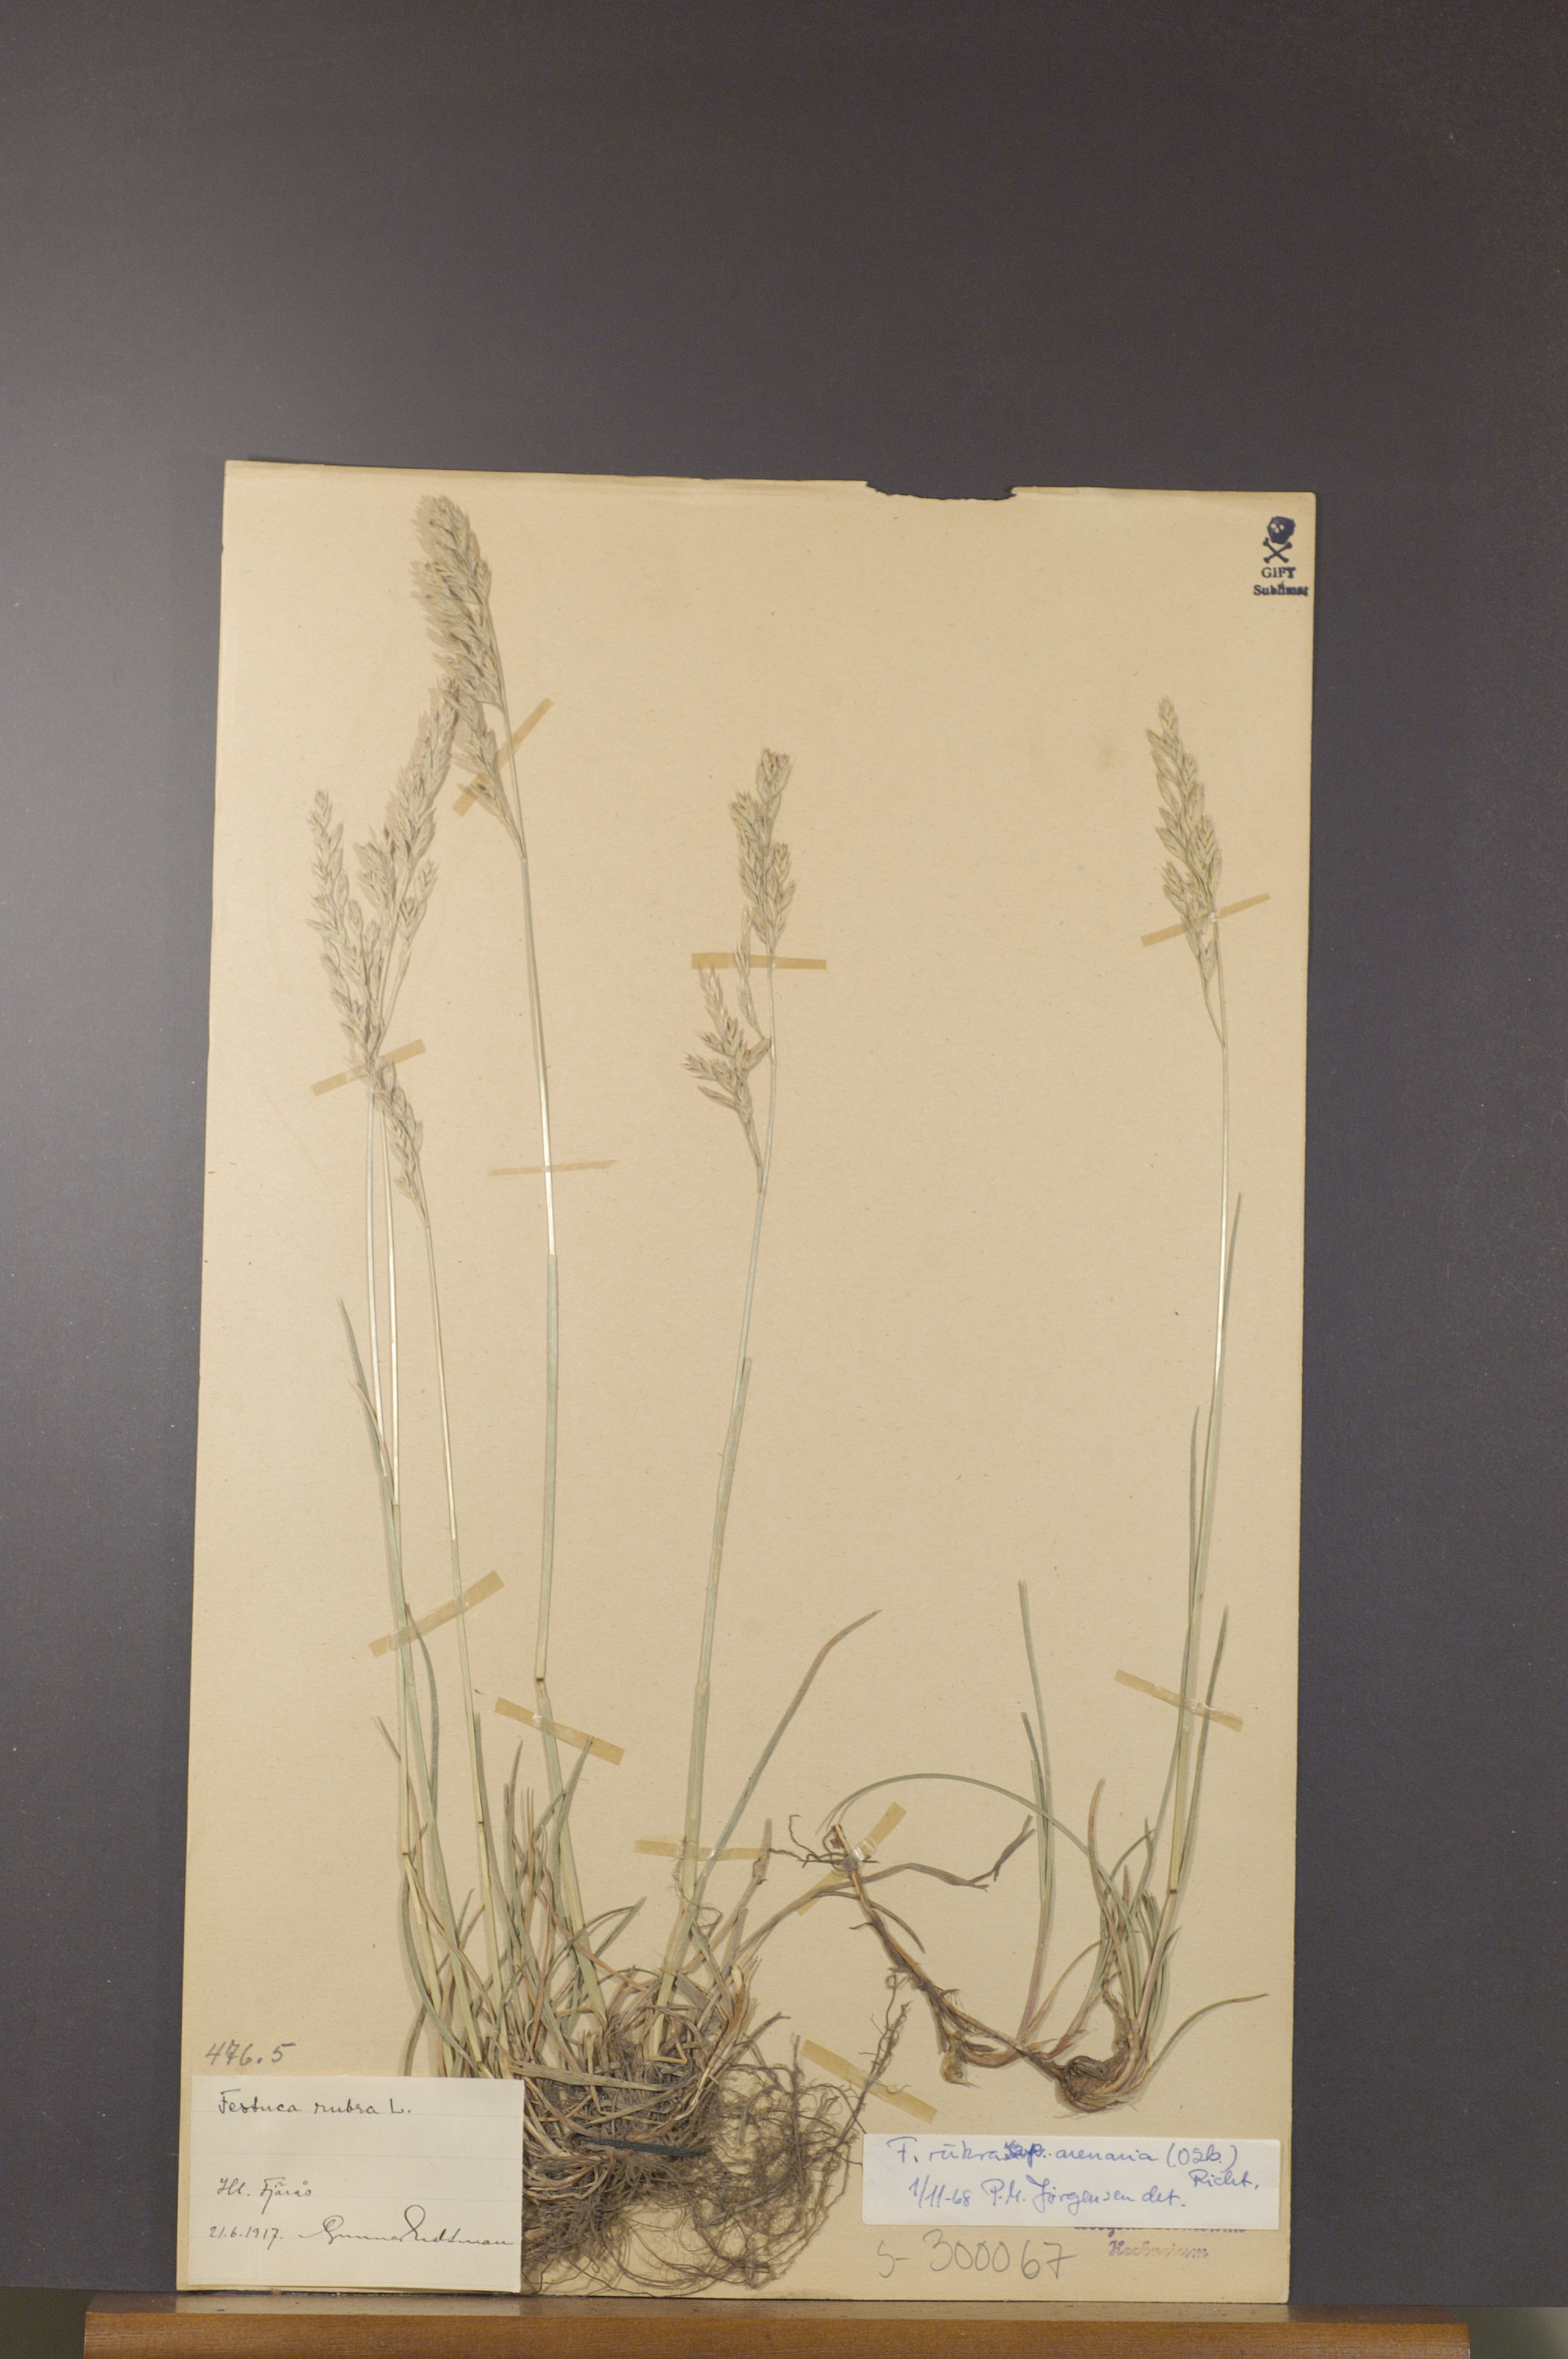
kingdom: Plantae
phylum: Tracheophyta
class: Liliopsida
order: Poales
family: Poaceae
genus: Festuca
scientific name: Festuca rubra
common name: Red fescue
